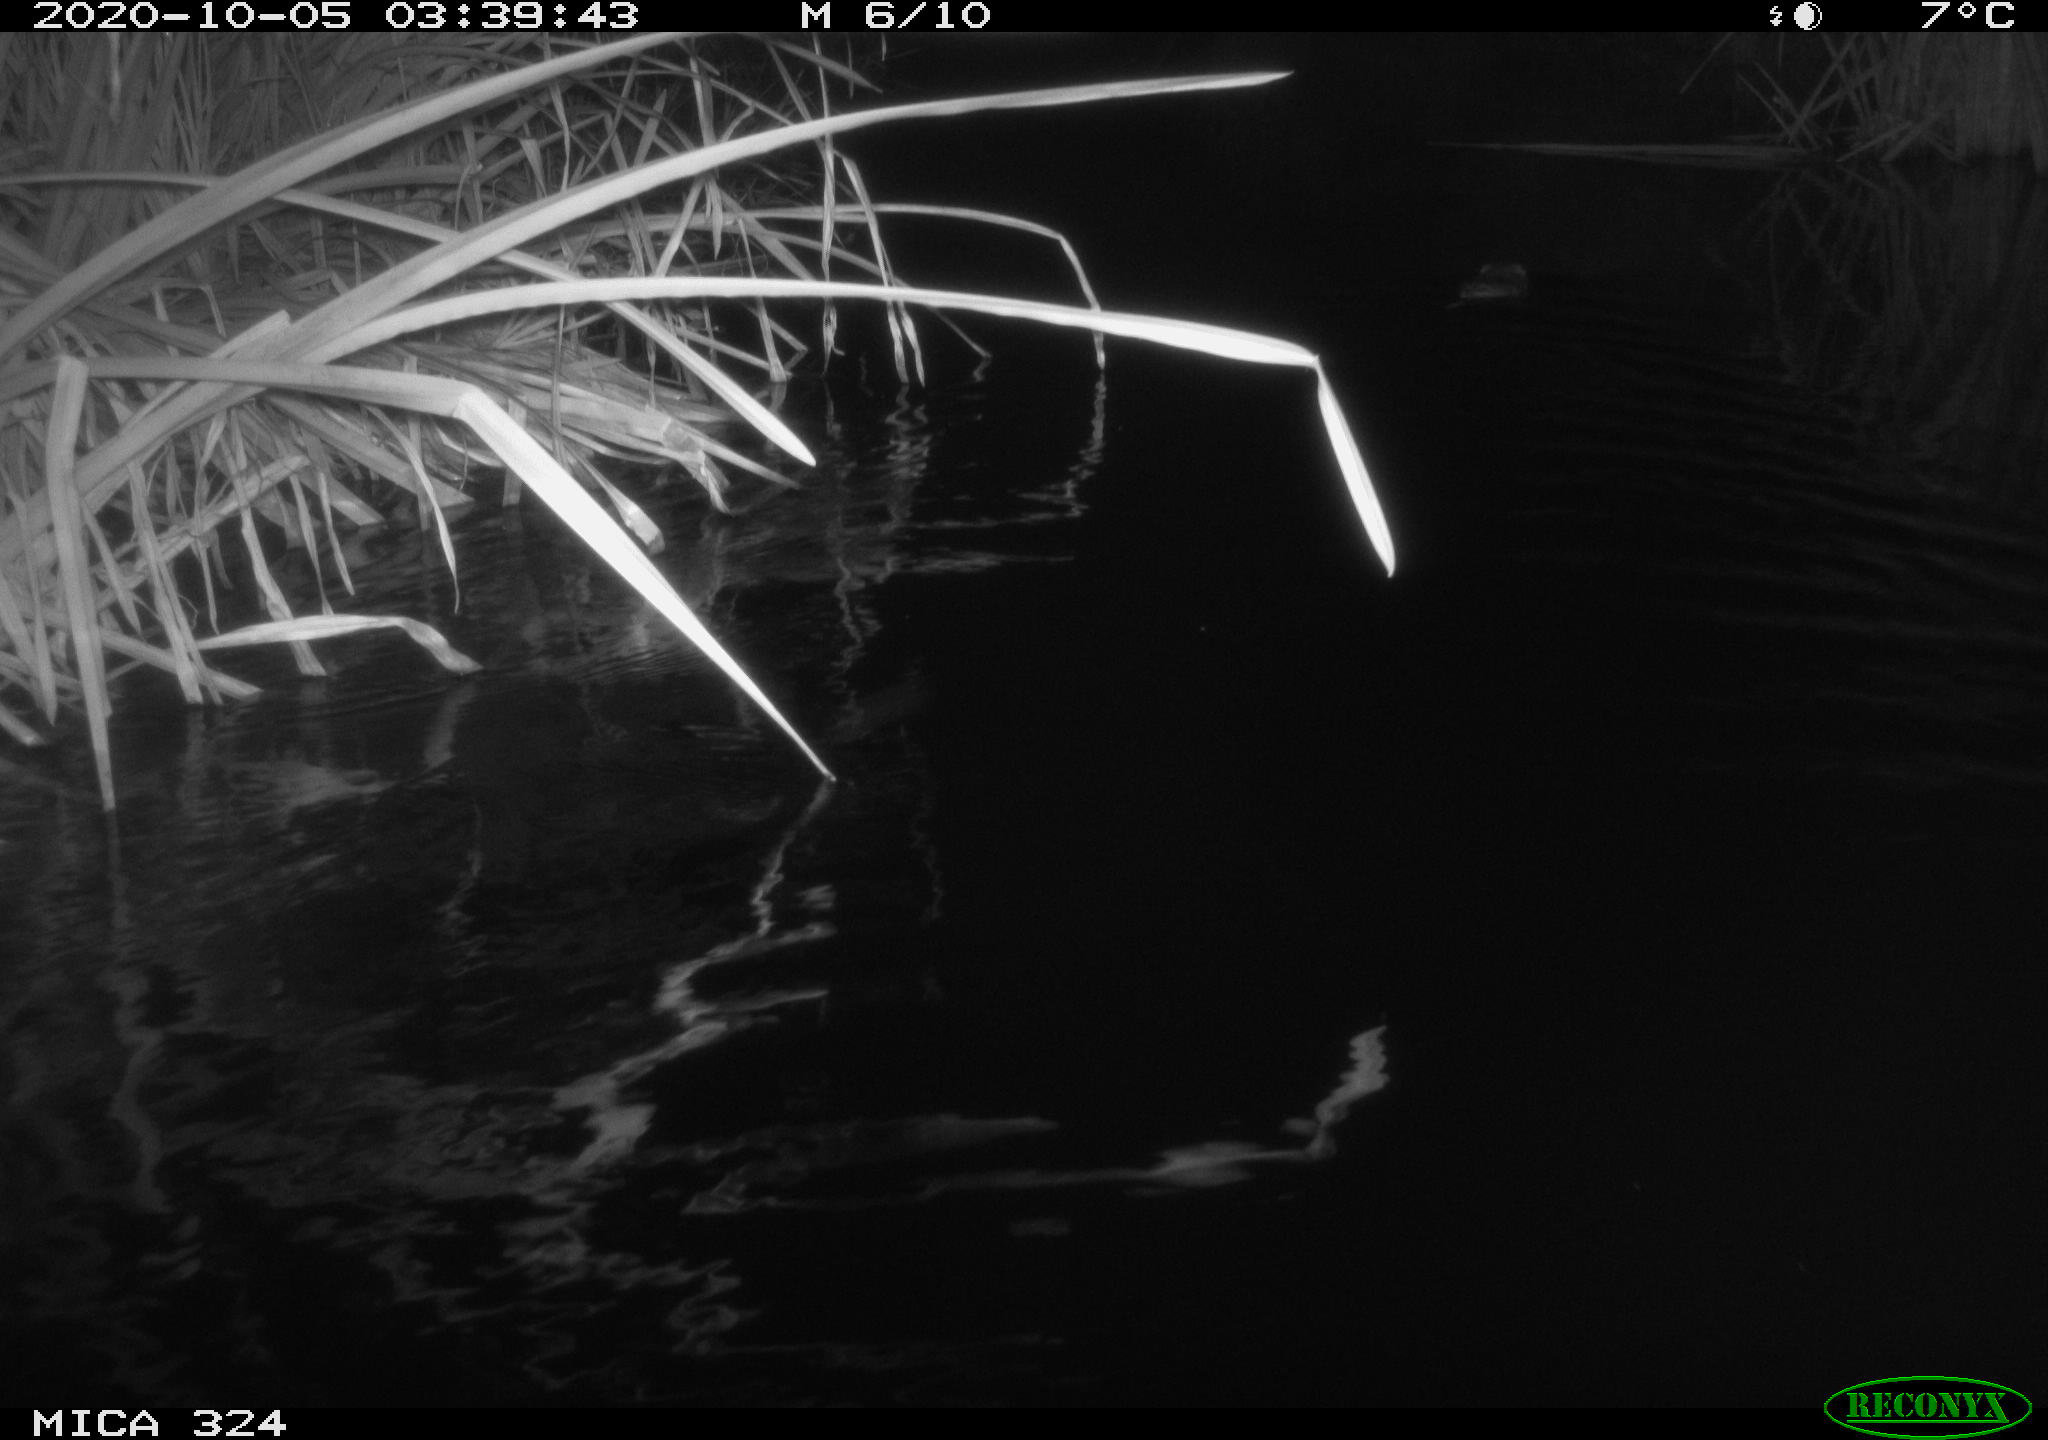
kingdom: Animalia
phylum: Chordata
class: Mammalia
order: Rodentia
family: Cricetidae
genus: Ondatra
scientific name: Ondatra zibethicus
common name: Muskrat
